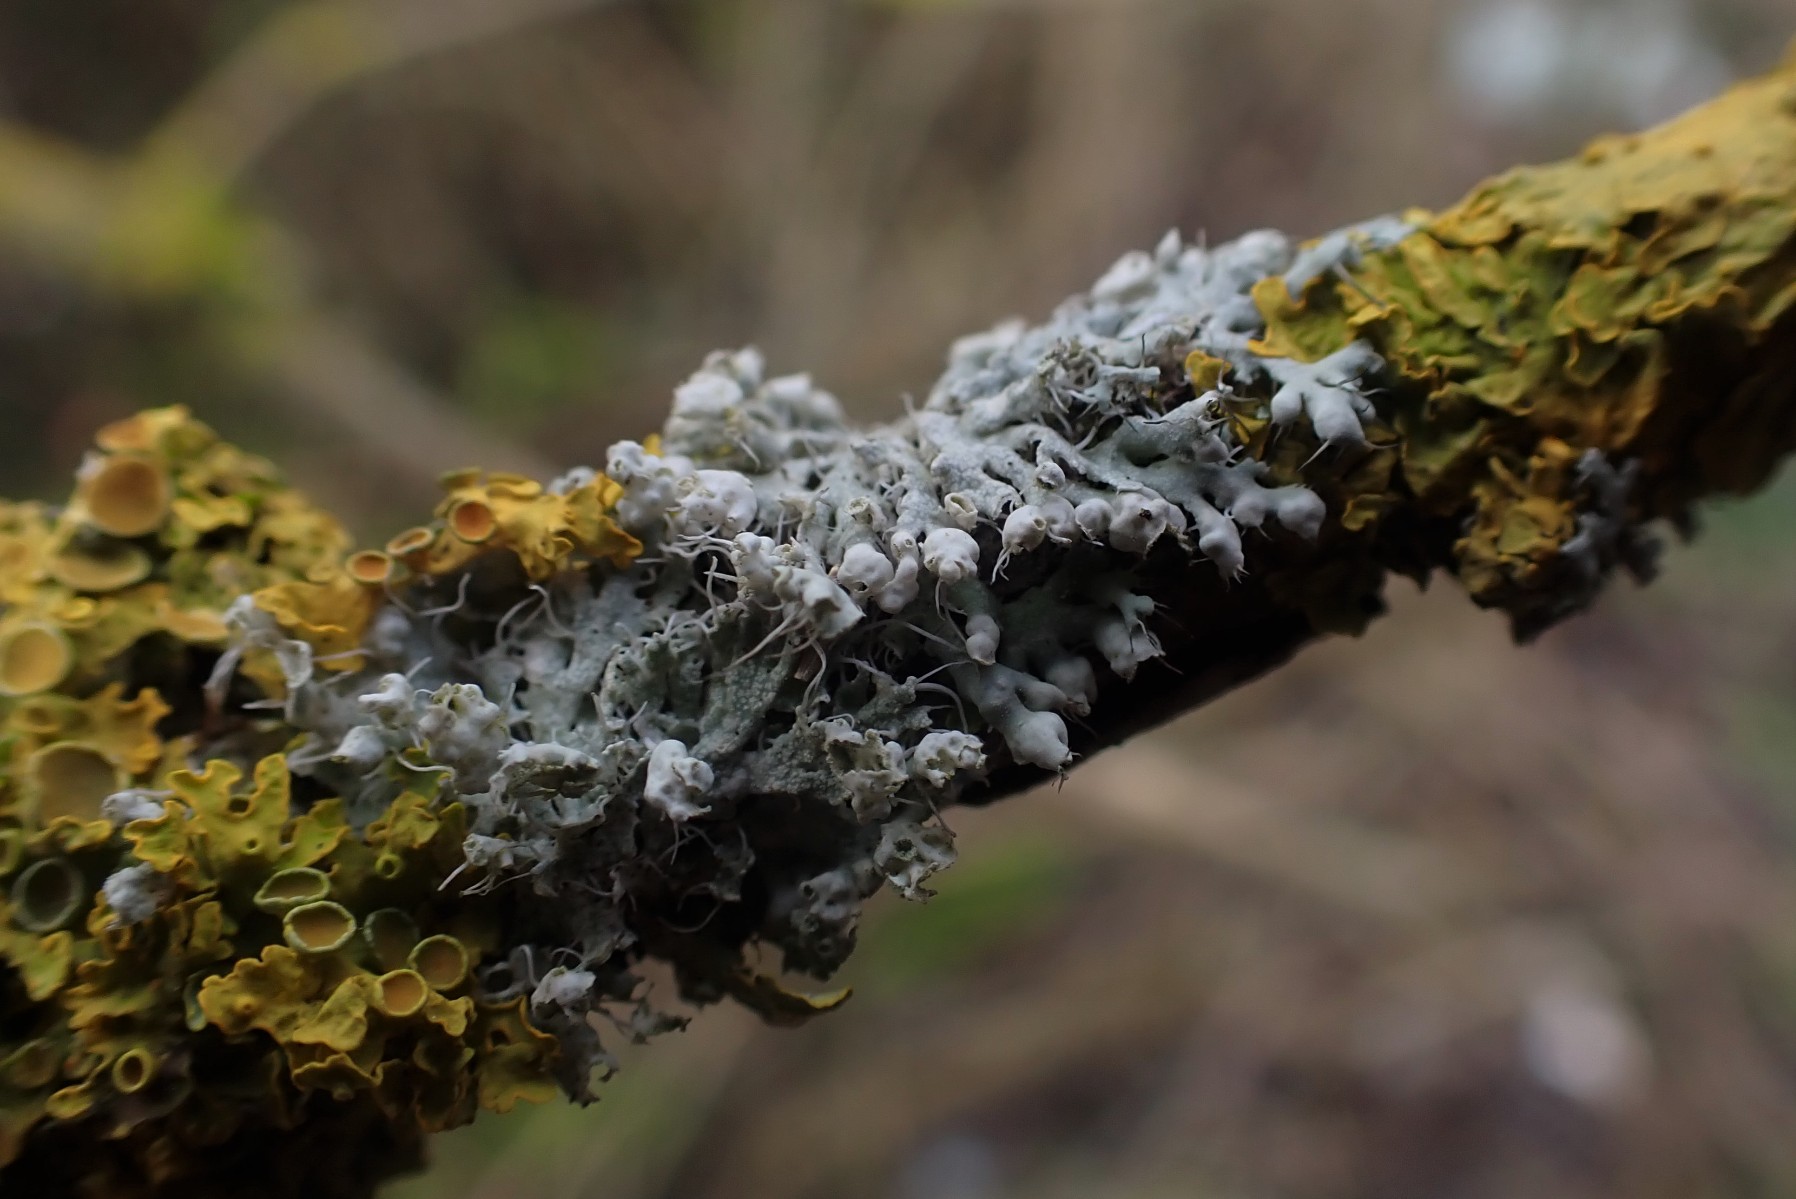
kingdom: Fungi
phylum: Ascomycota
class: Lecanoromycetes
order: Caliciales
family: Physciaceae
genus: Physcia
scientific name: Physcia adscendens
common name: hætte-rosetlav
